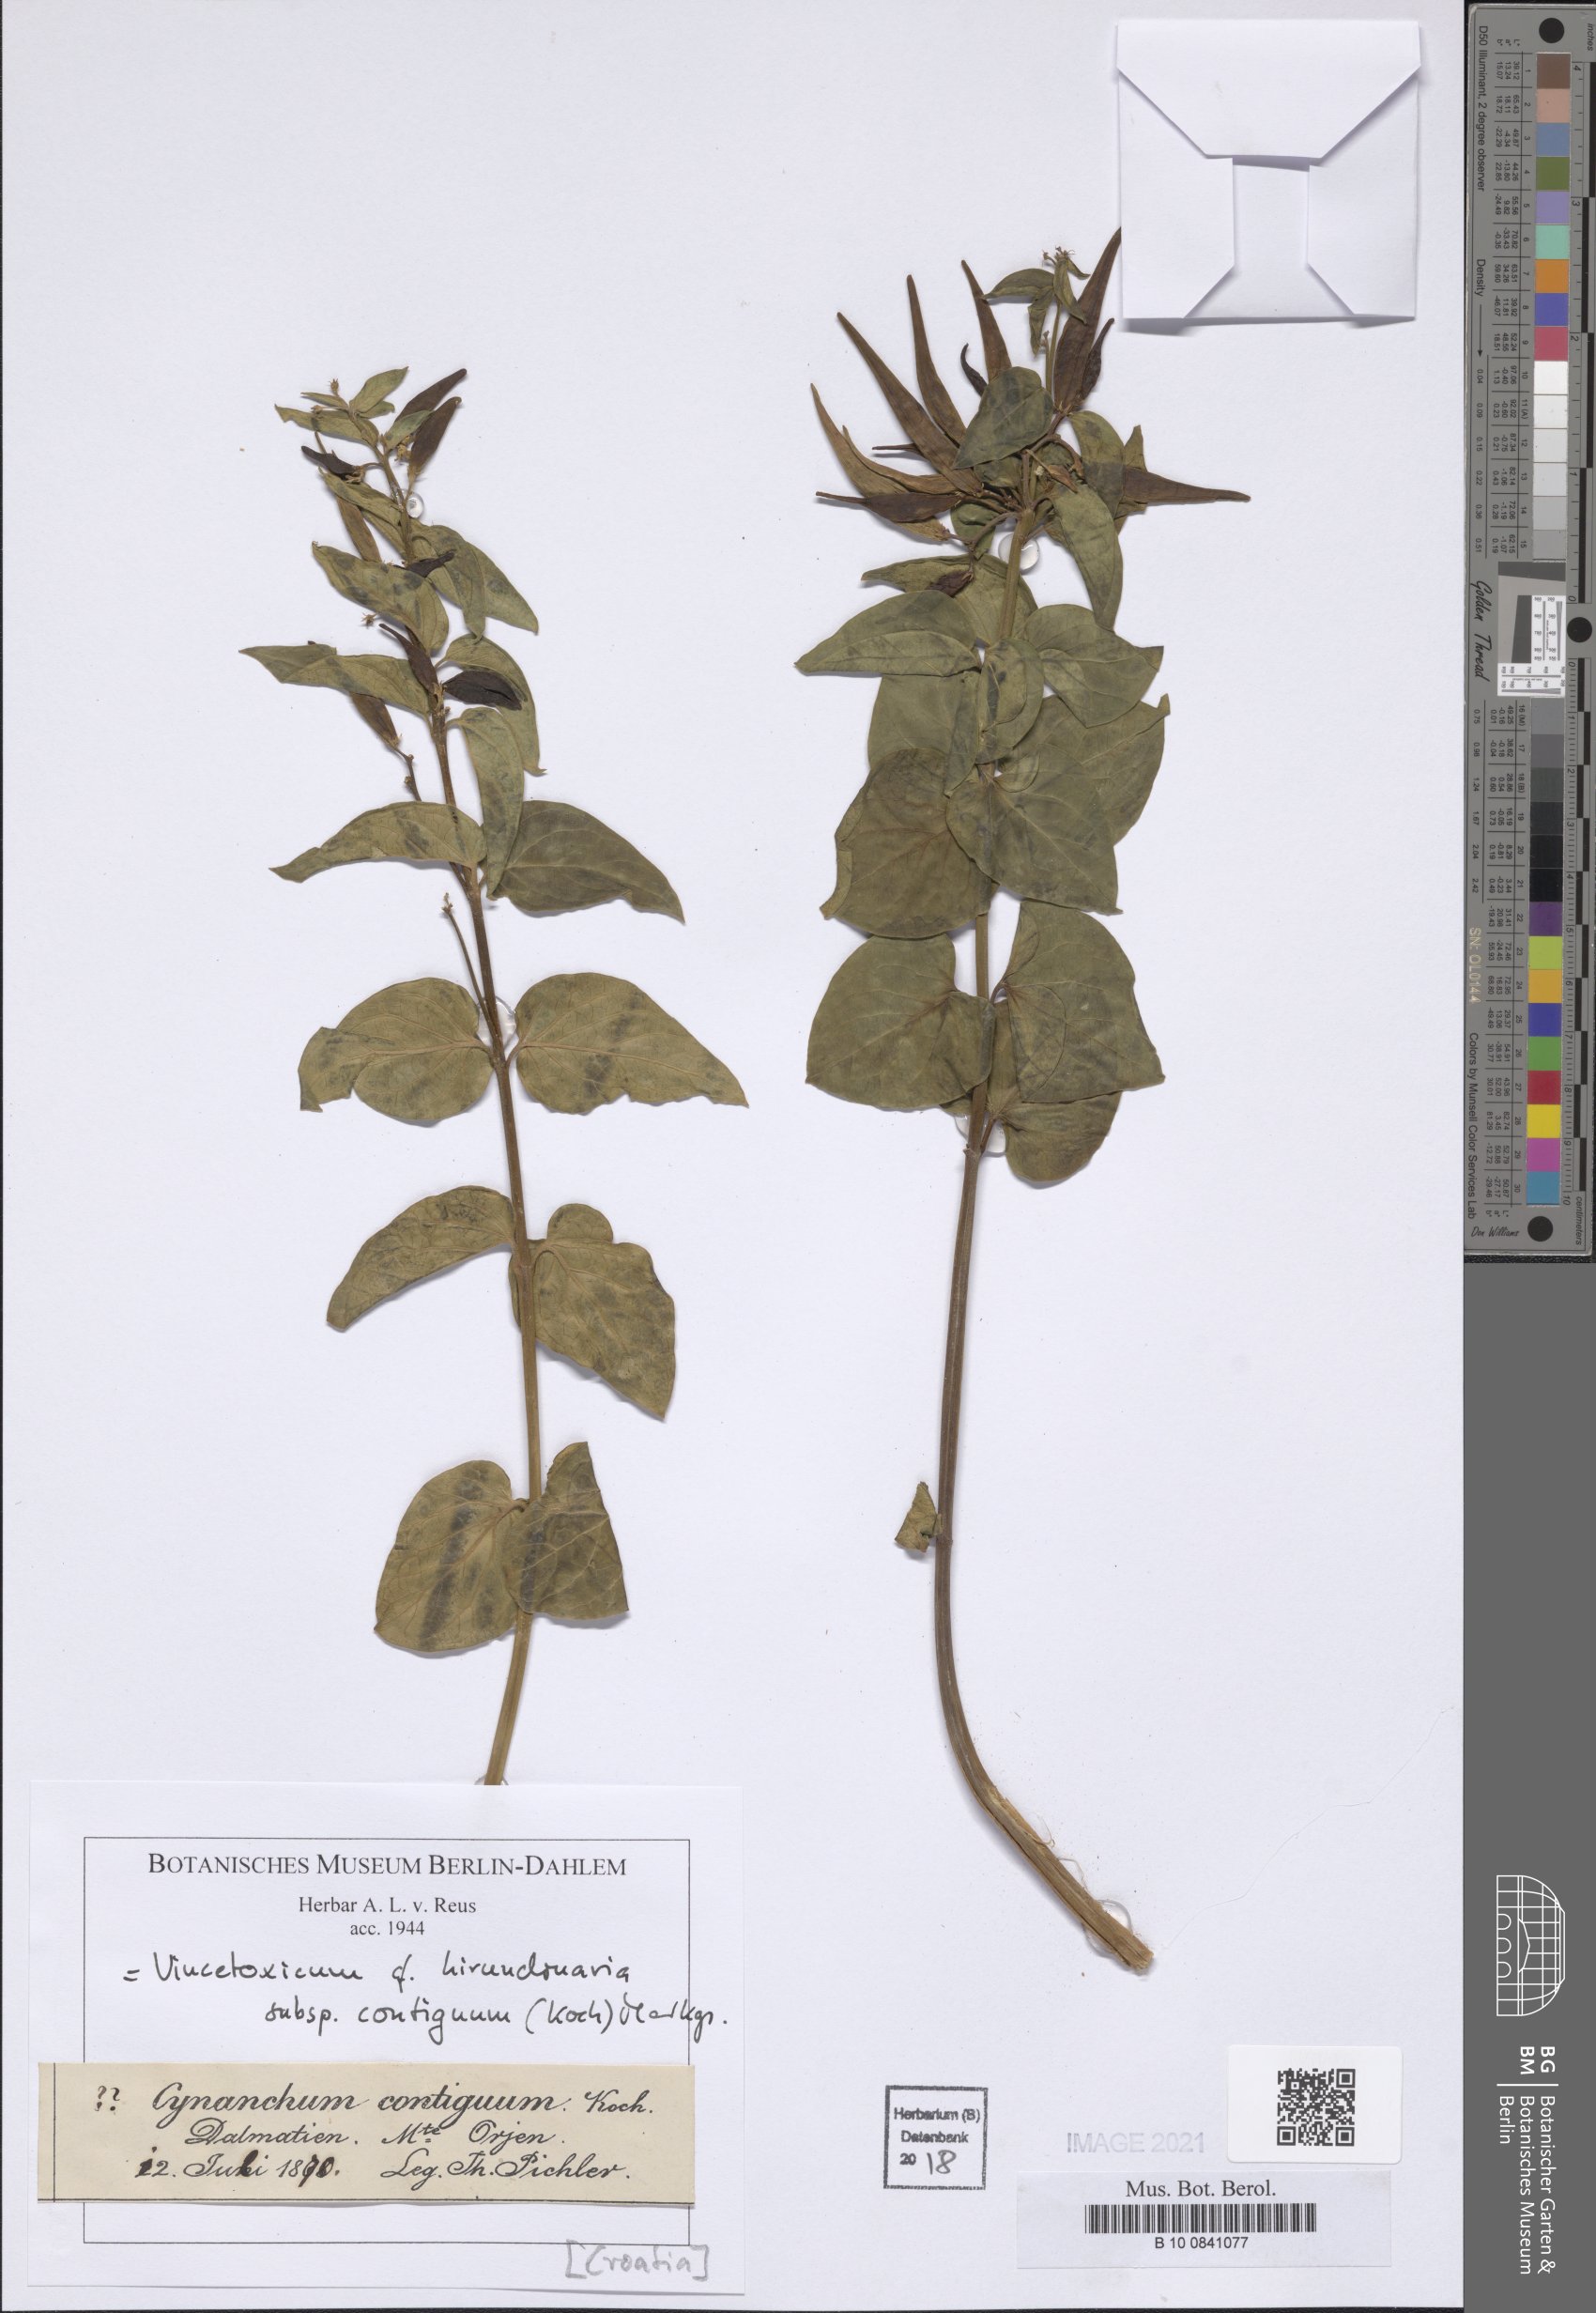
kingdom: Plantae
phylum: Tracheophyta
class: Magnoliopsida
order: Gentianales
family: Apocynaceae
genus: Vincetoxicum
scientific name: Vincetoxicum hirundinaria
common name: White swallowwort
